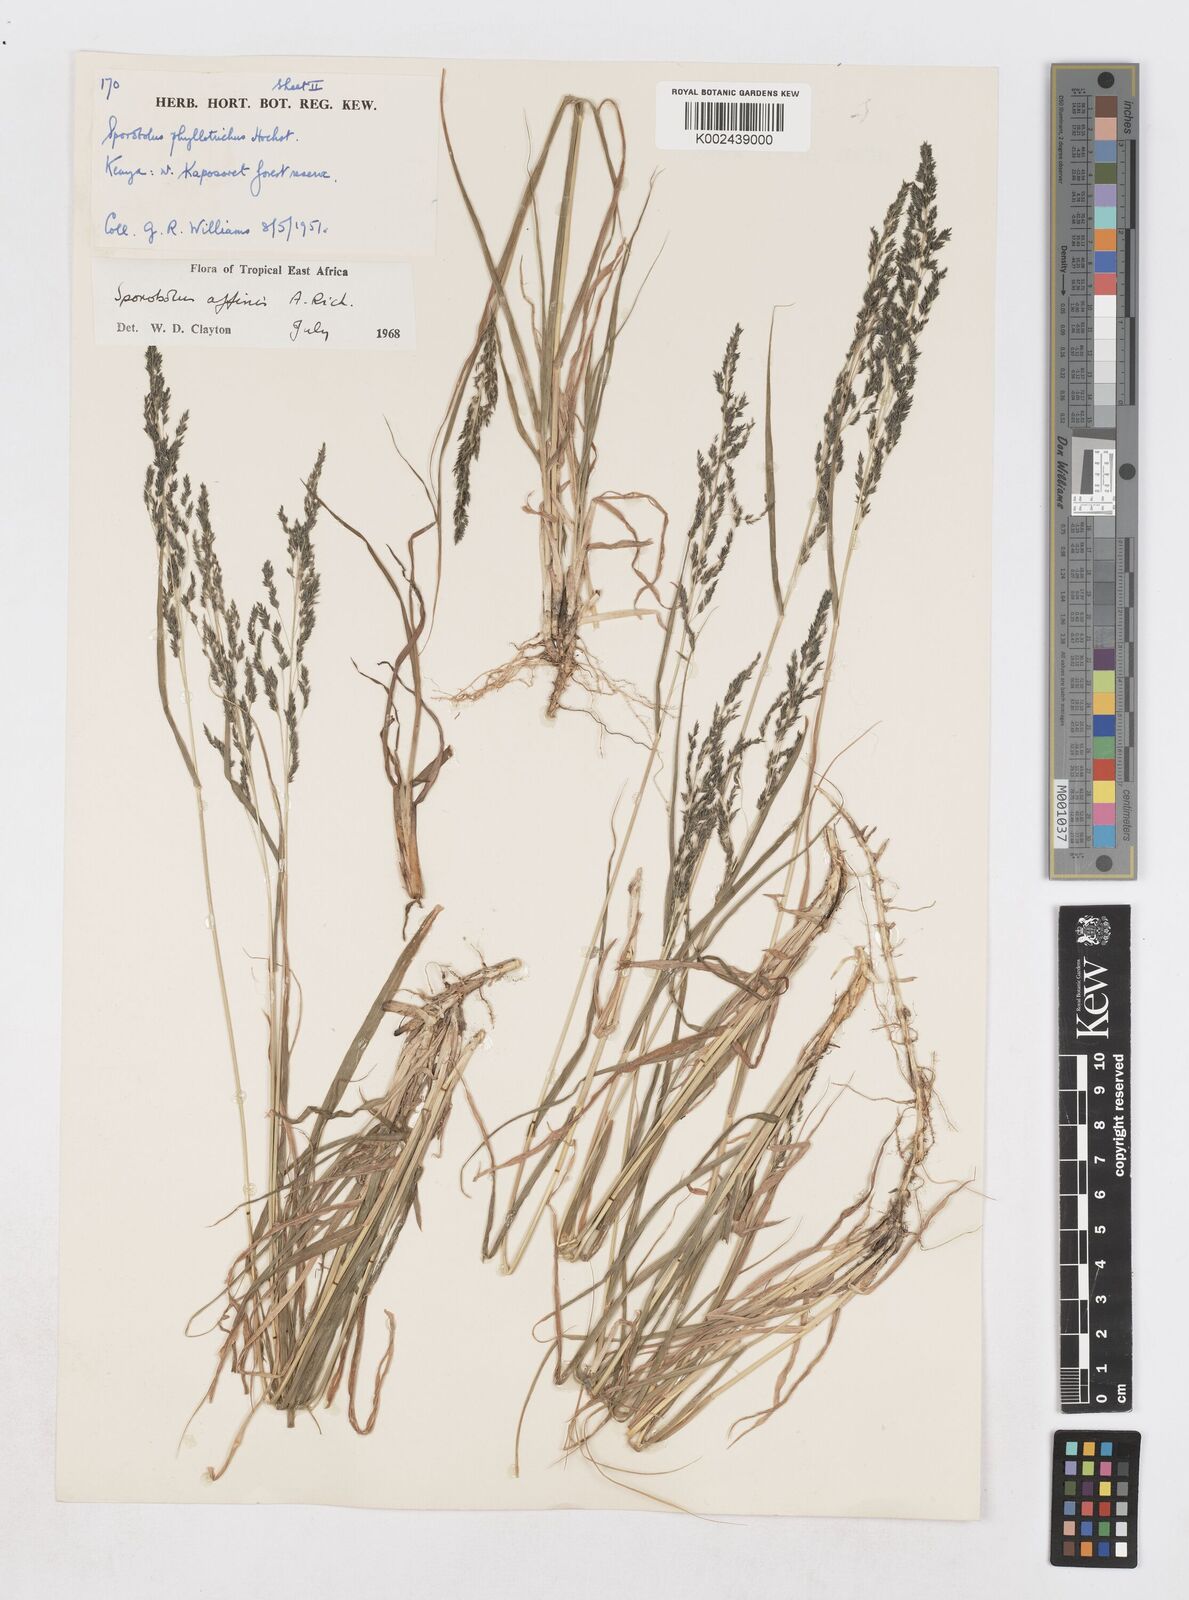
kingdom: Plantae
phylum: Tracheophyta
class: Liliopsida
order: Poales
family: Poaceae
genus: Sporobolus
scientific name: Sporobolus confinis
